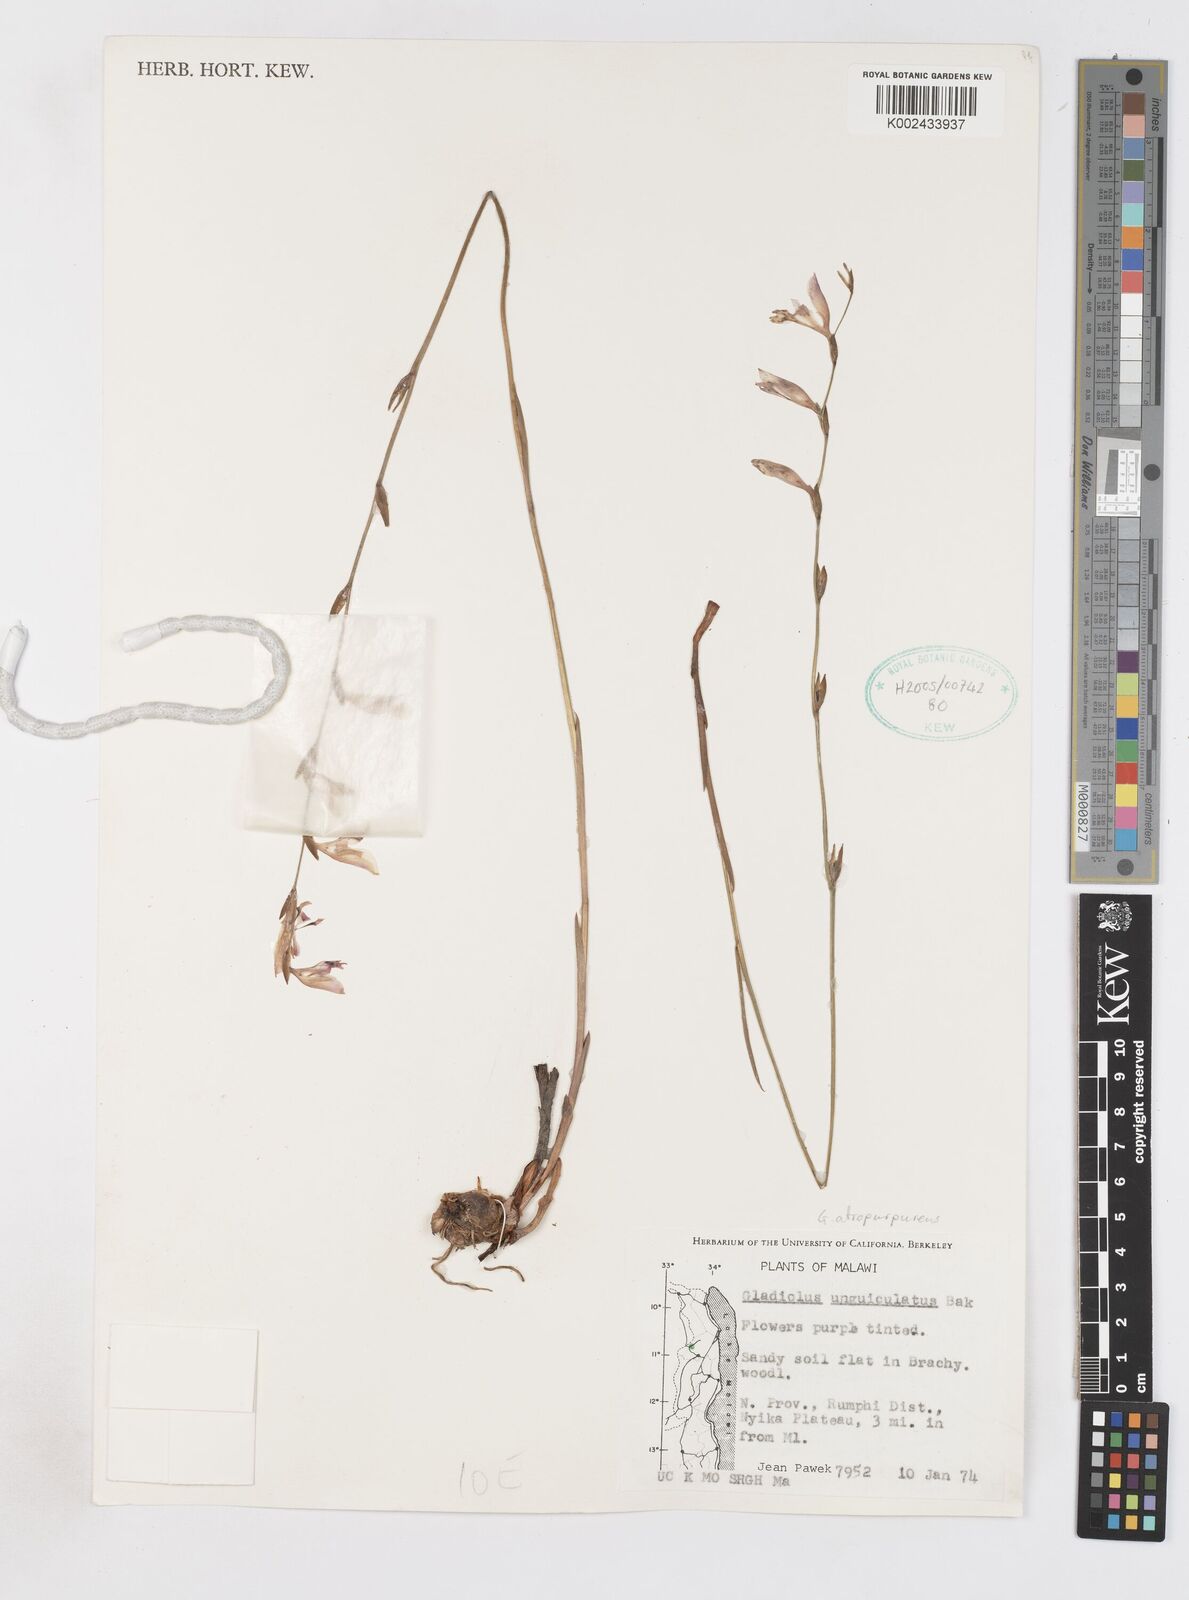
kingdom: Plantae
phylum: Tracheophyta
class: Liliopsida
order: Asparagales
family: Iridaceae
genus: Gladiolus
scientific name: Gladiolus atropurpureus
